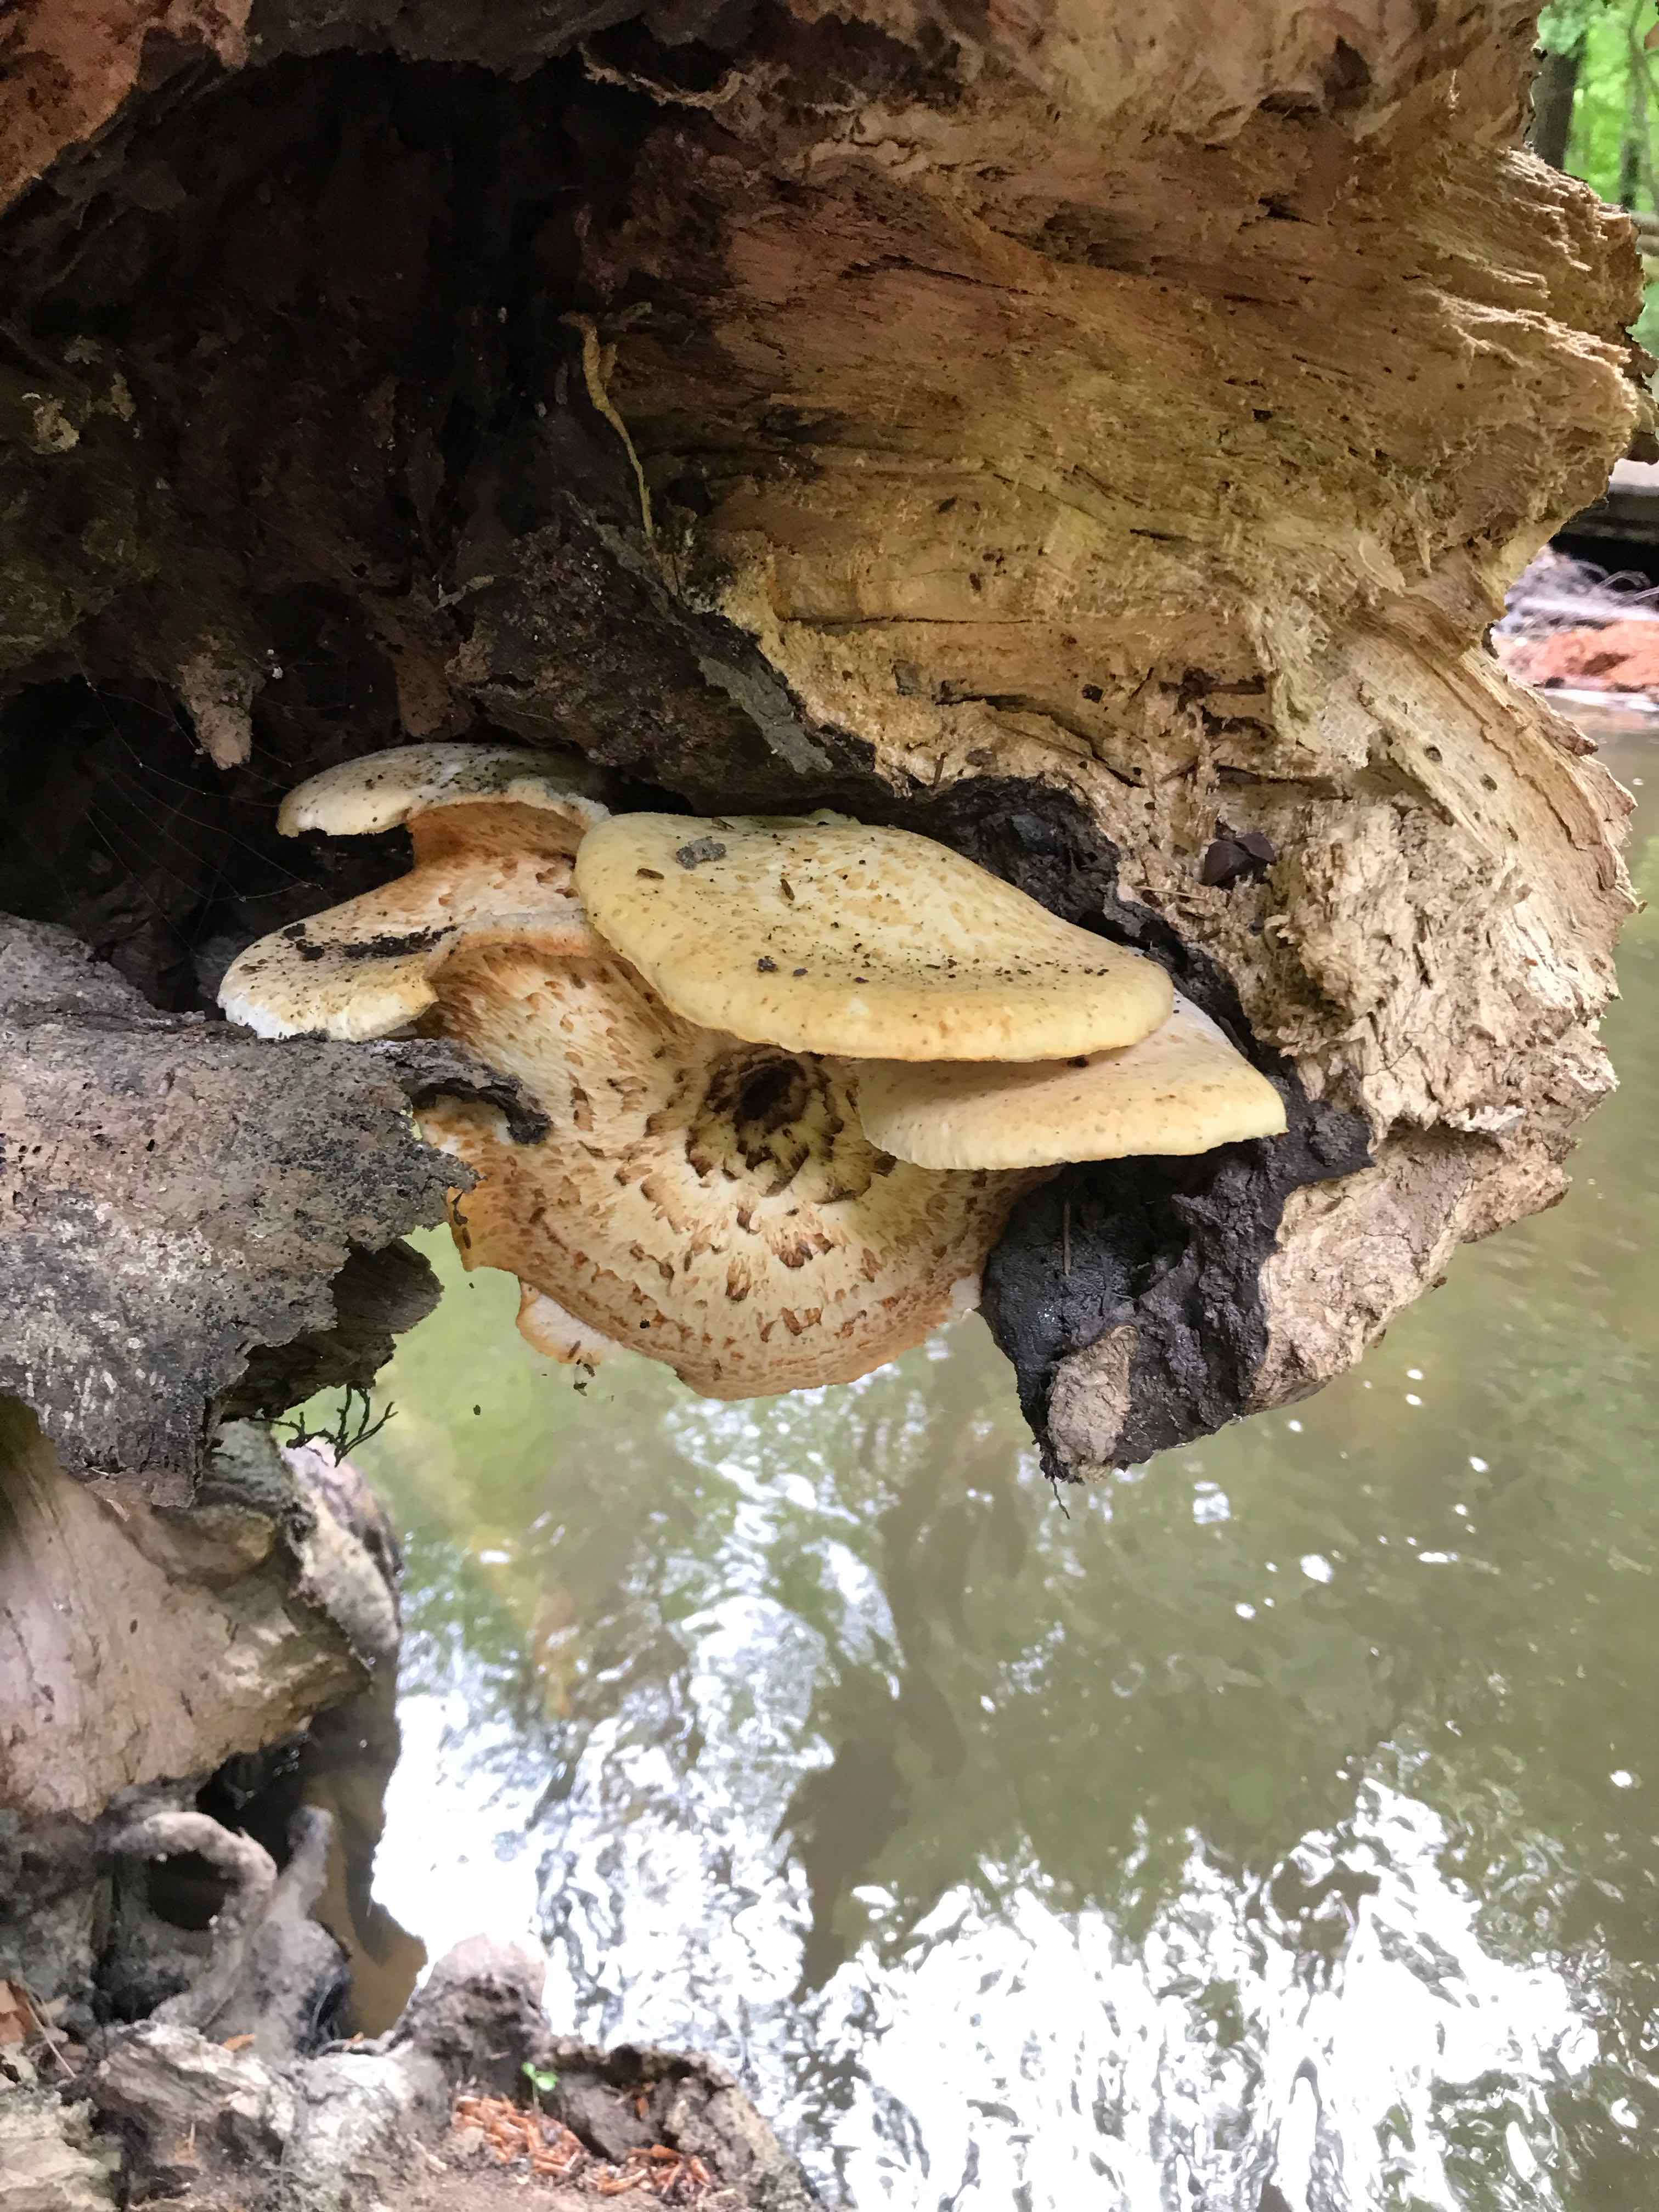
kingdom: Fungi
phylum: Basidiomycota
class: Agaricomycetes
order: Polyporales
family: Polyporaceae
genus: Cerioporus
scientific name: Cerioporus squamosus
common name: skællet stilkporesvamp
